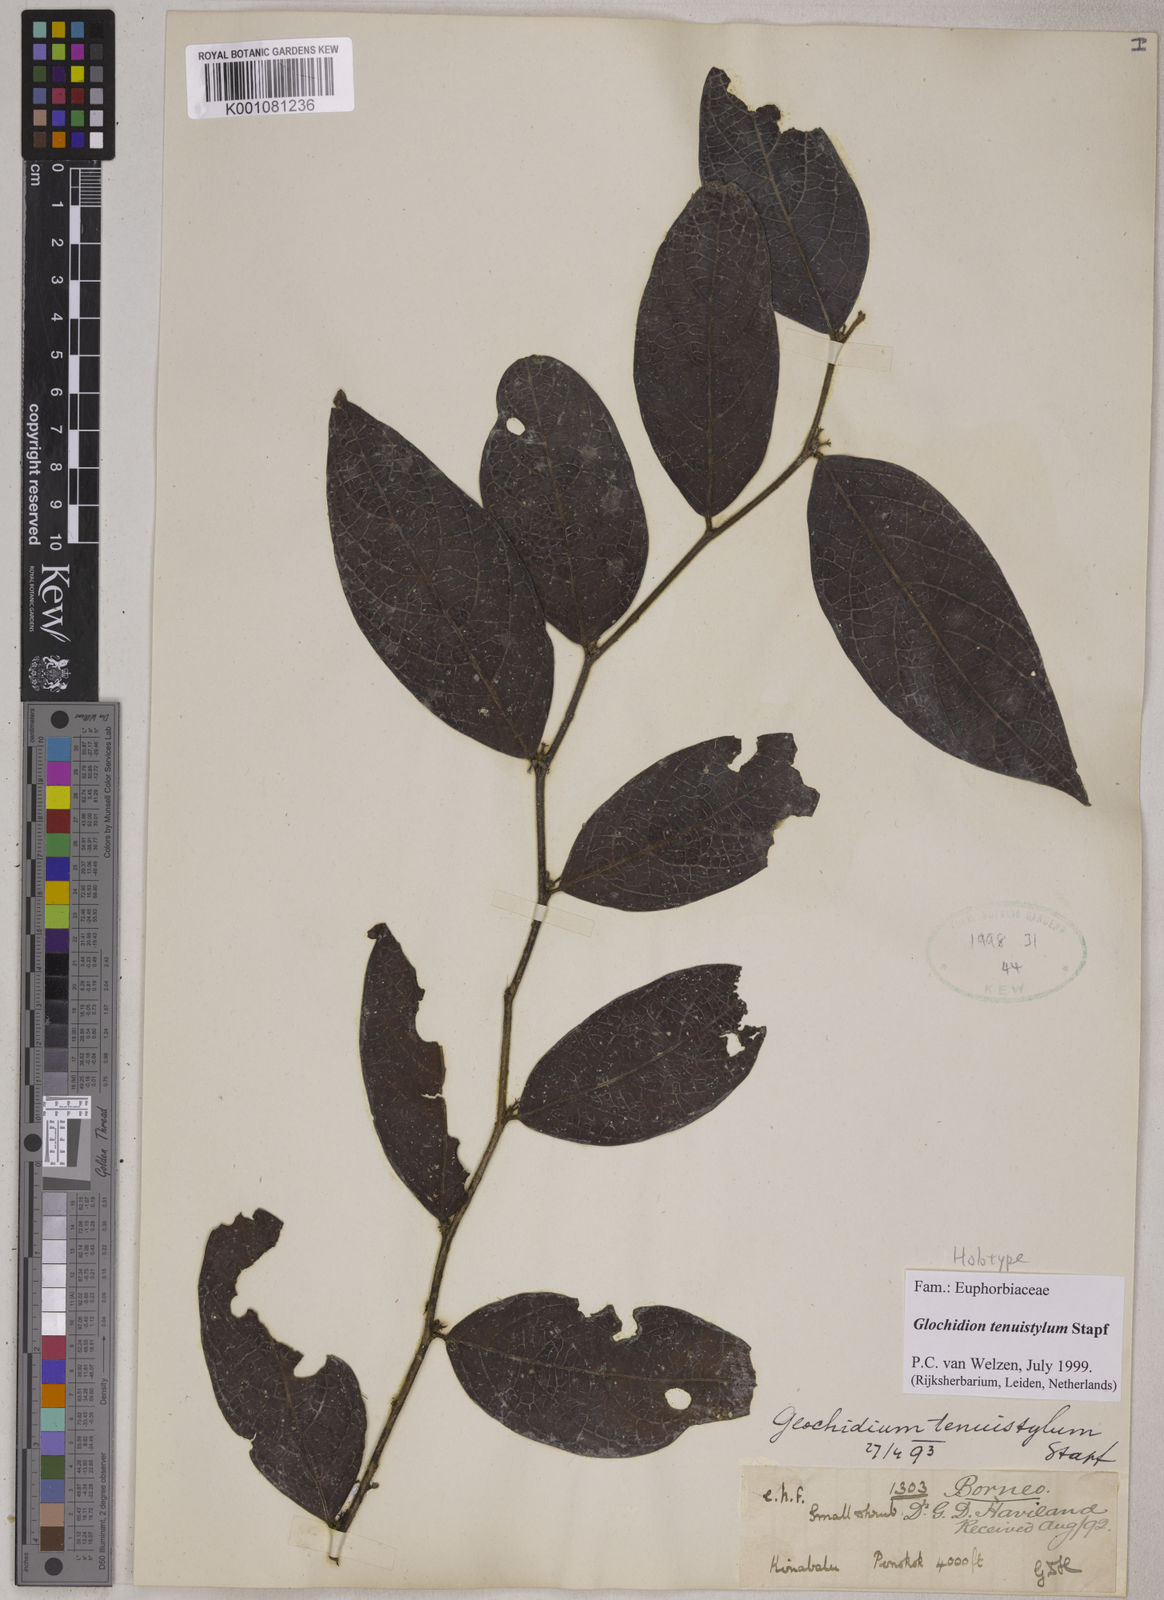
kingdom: Plantae
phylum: Tracheophyta
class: Magnoliopsida
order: Malpighiales
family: Phyllanthaceae
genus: Glochidion
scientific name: Glochidion tenuistylum
